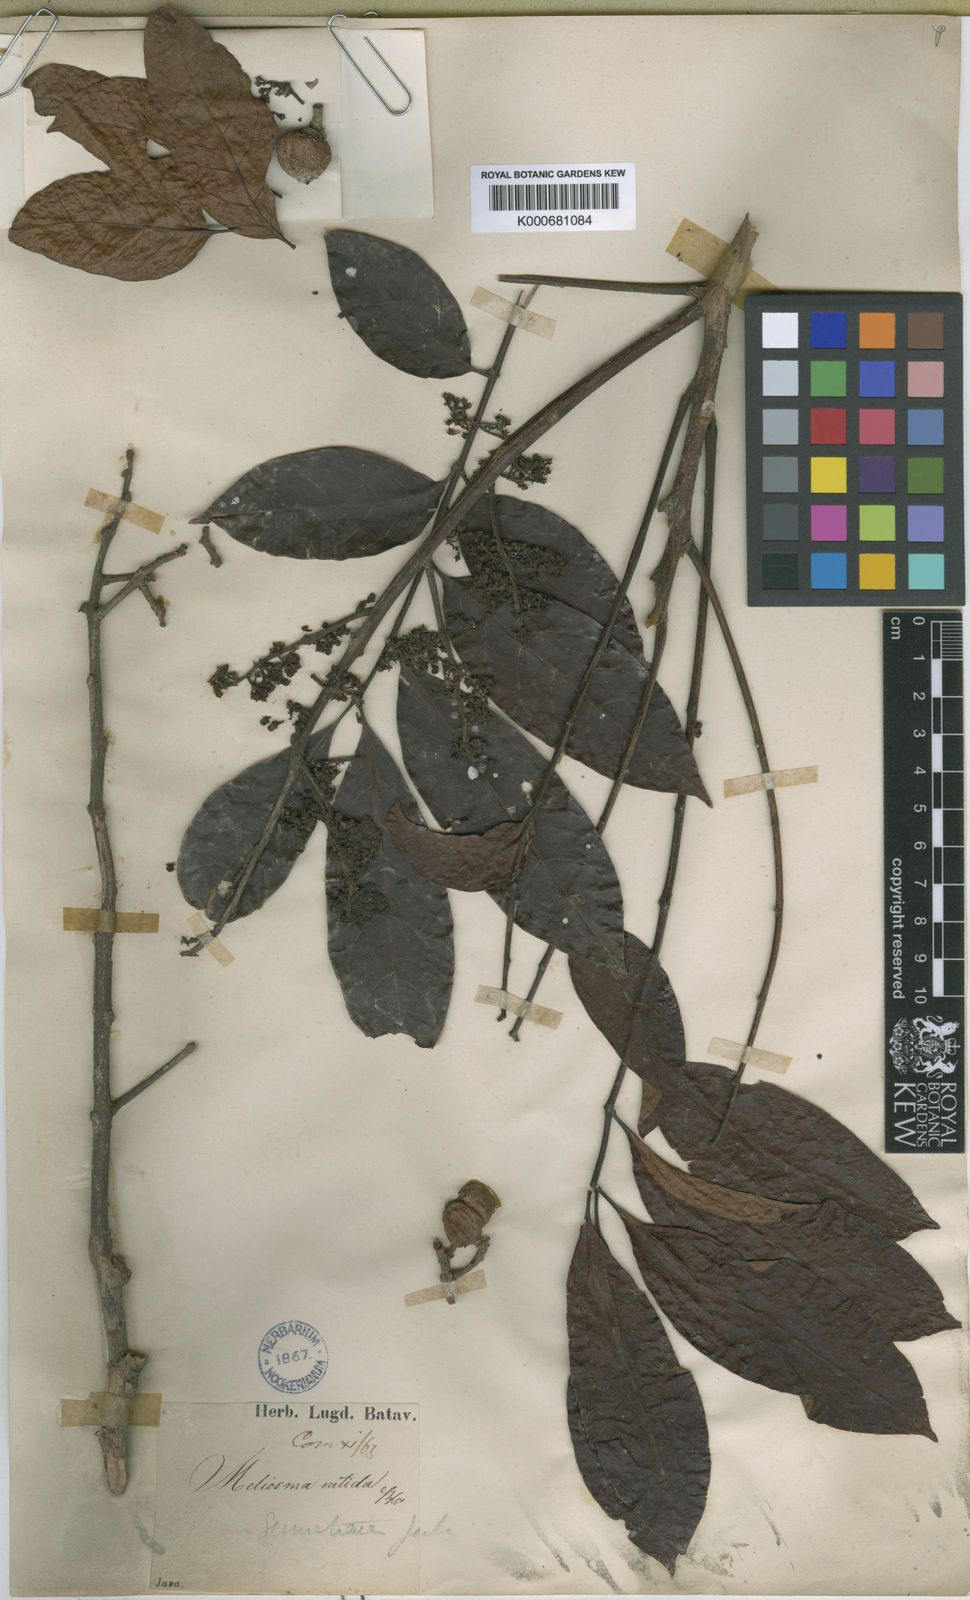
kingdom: Plantae
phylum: Tracheophyta
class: Magnoliopsida
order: Proteales
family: Sabiaceae
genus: Meliosma
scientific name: Meliosma sumatrana
